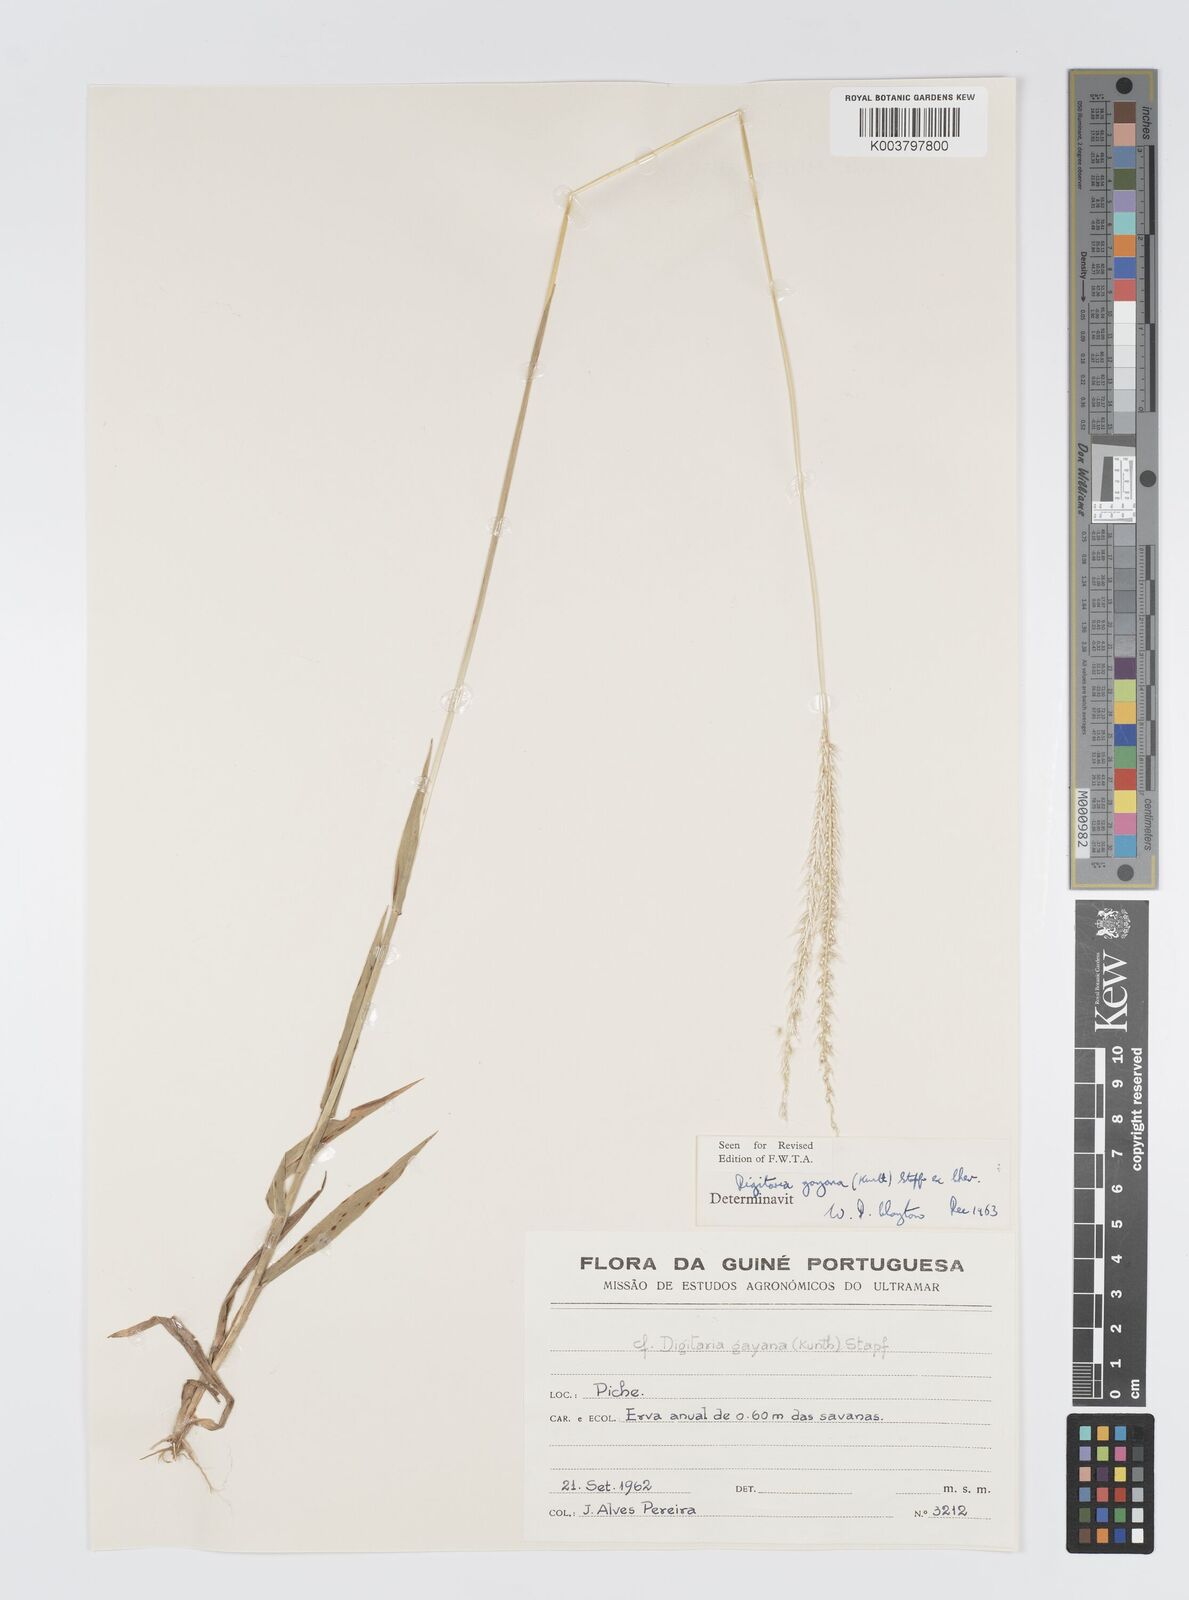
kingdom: Plantae
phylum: Tracheophyta
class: Liliopsida
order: Poales
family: Poaceae
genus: Digitaria
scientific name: Digitaria gayana
